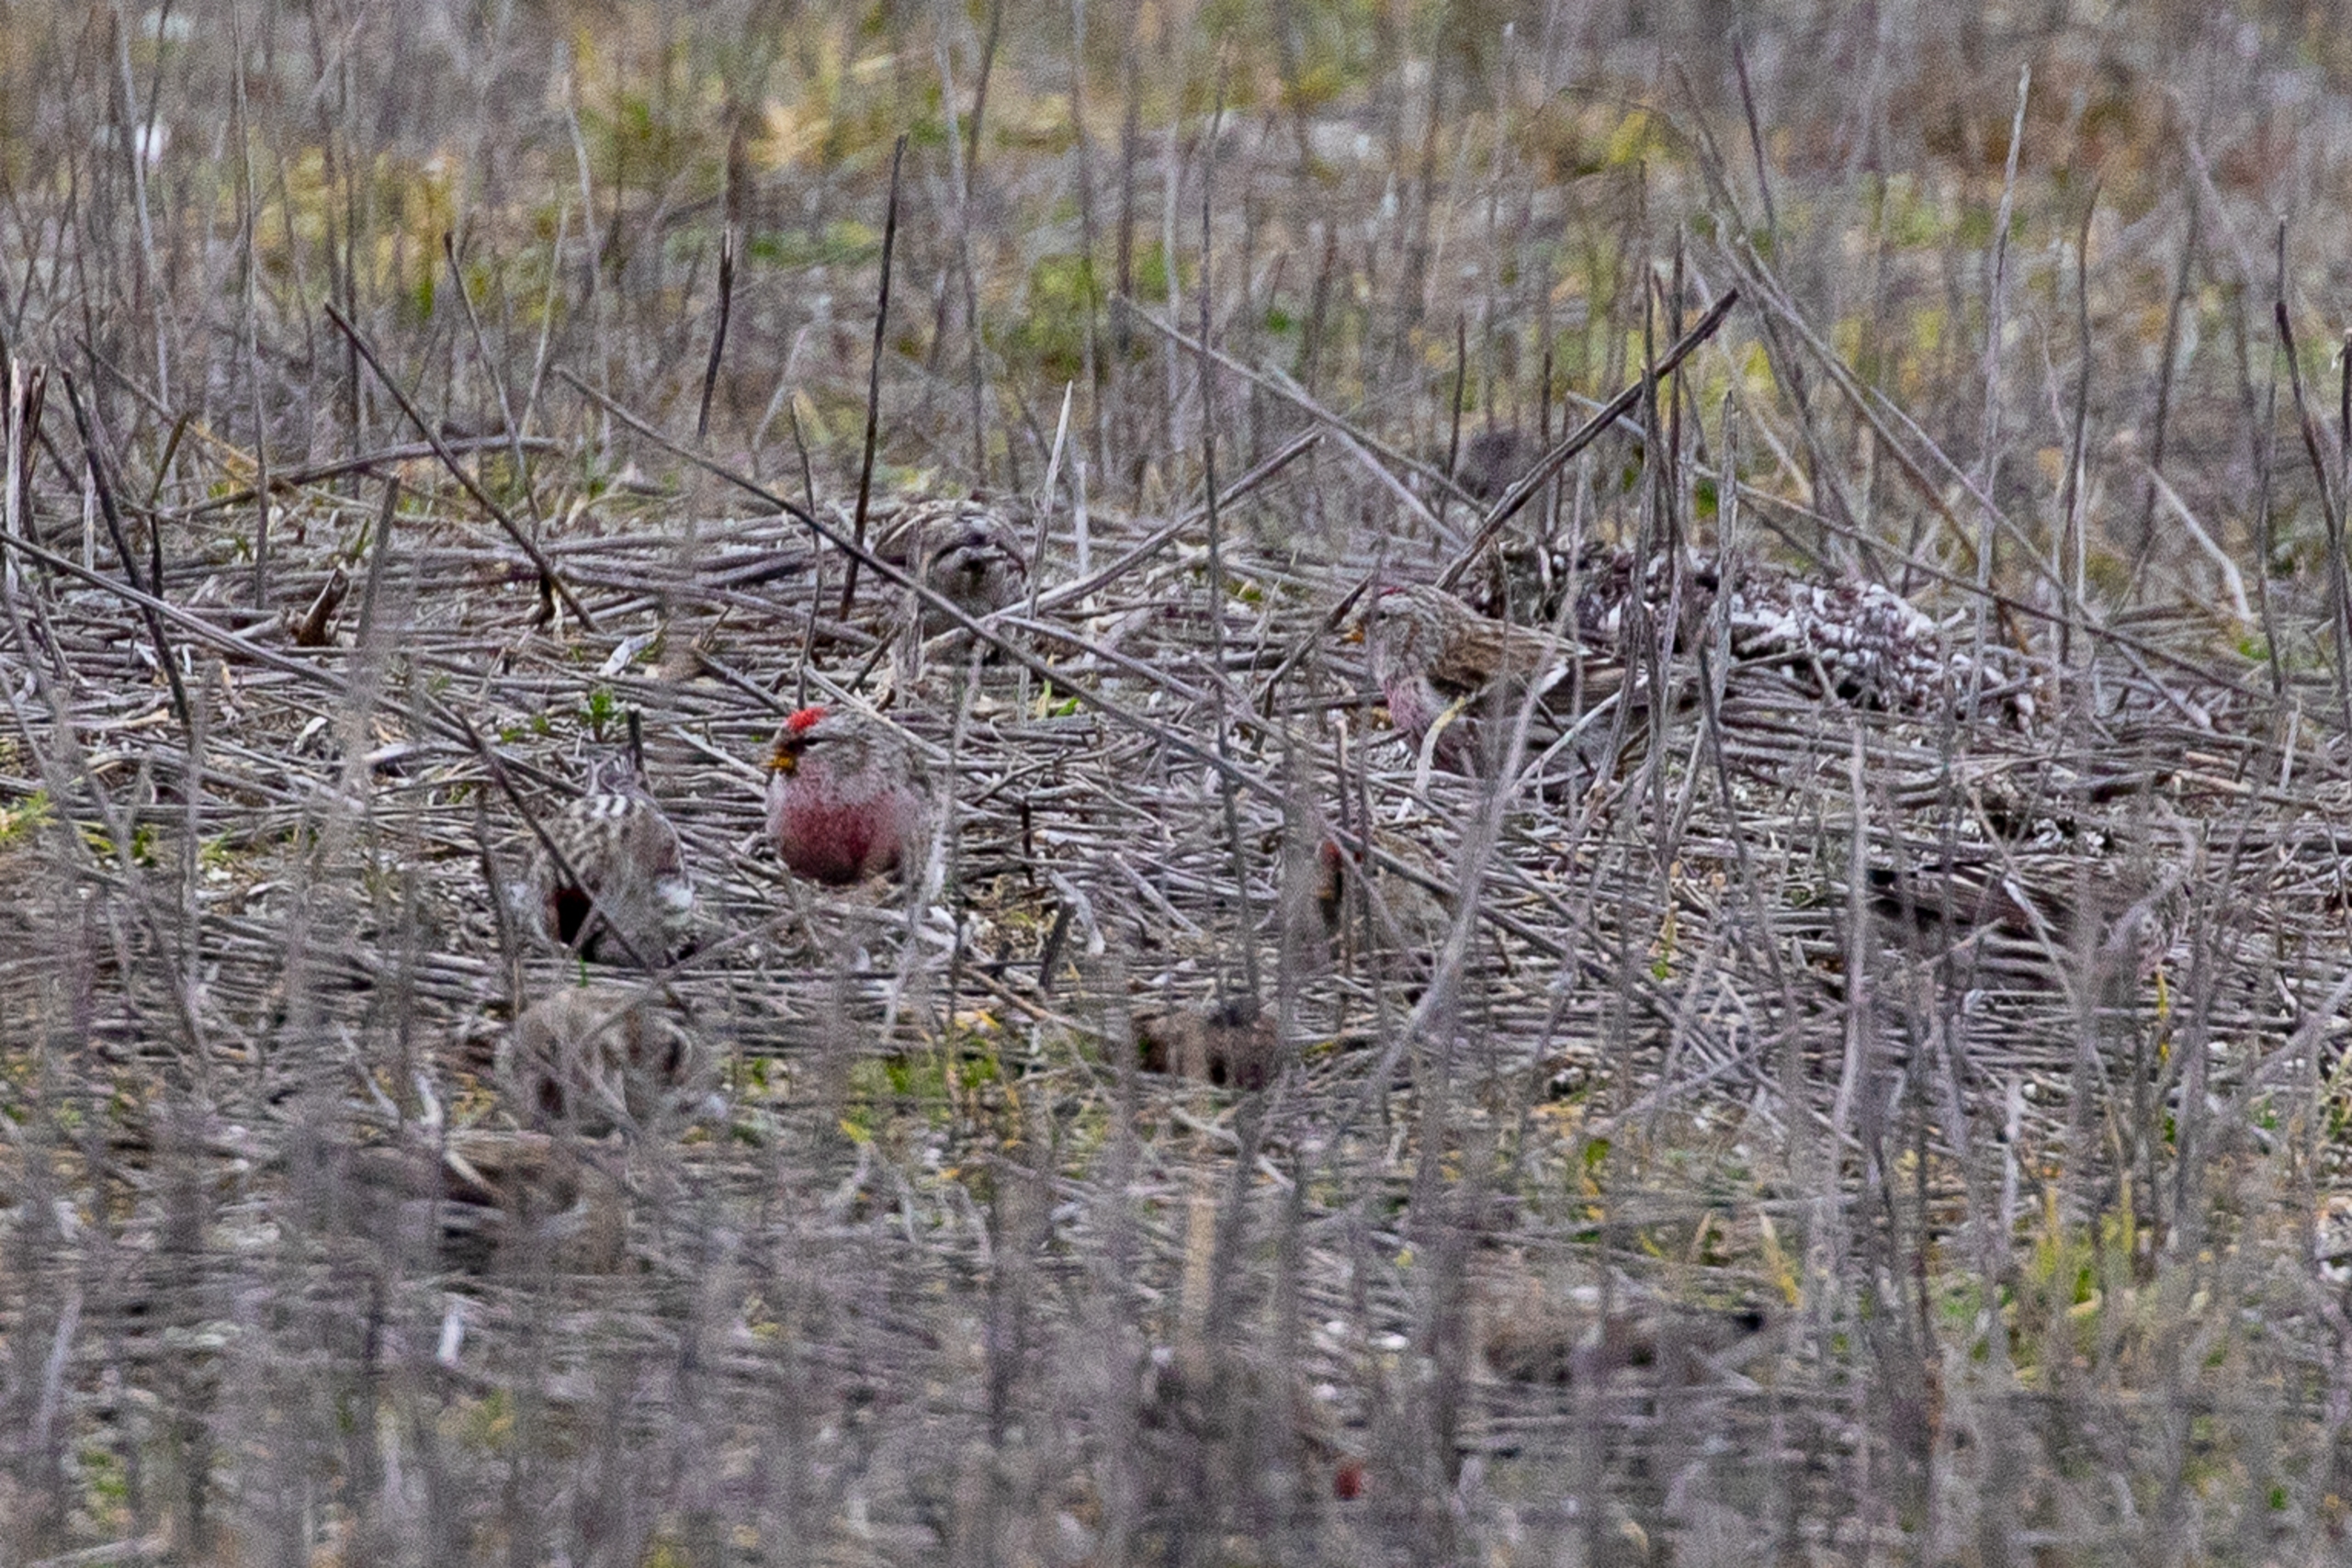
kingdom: Animalia
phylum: Chordata
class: Aves
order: Passeriformes
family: Fringillidae
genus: Acanthis
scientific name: Acanthis flammea
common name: Nordlig gråsisken
